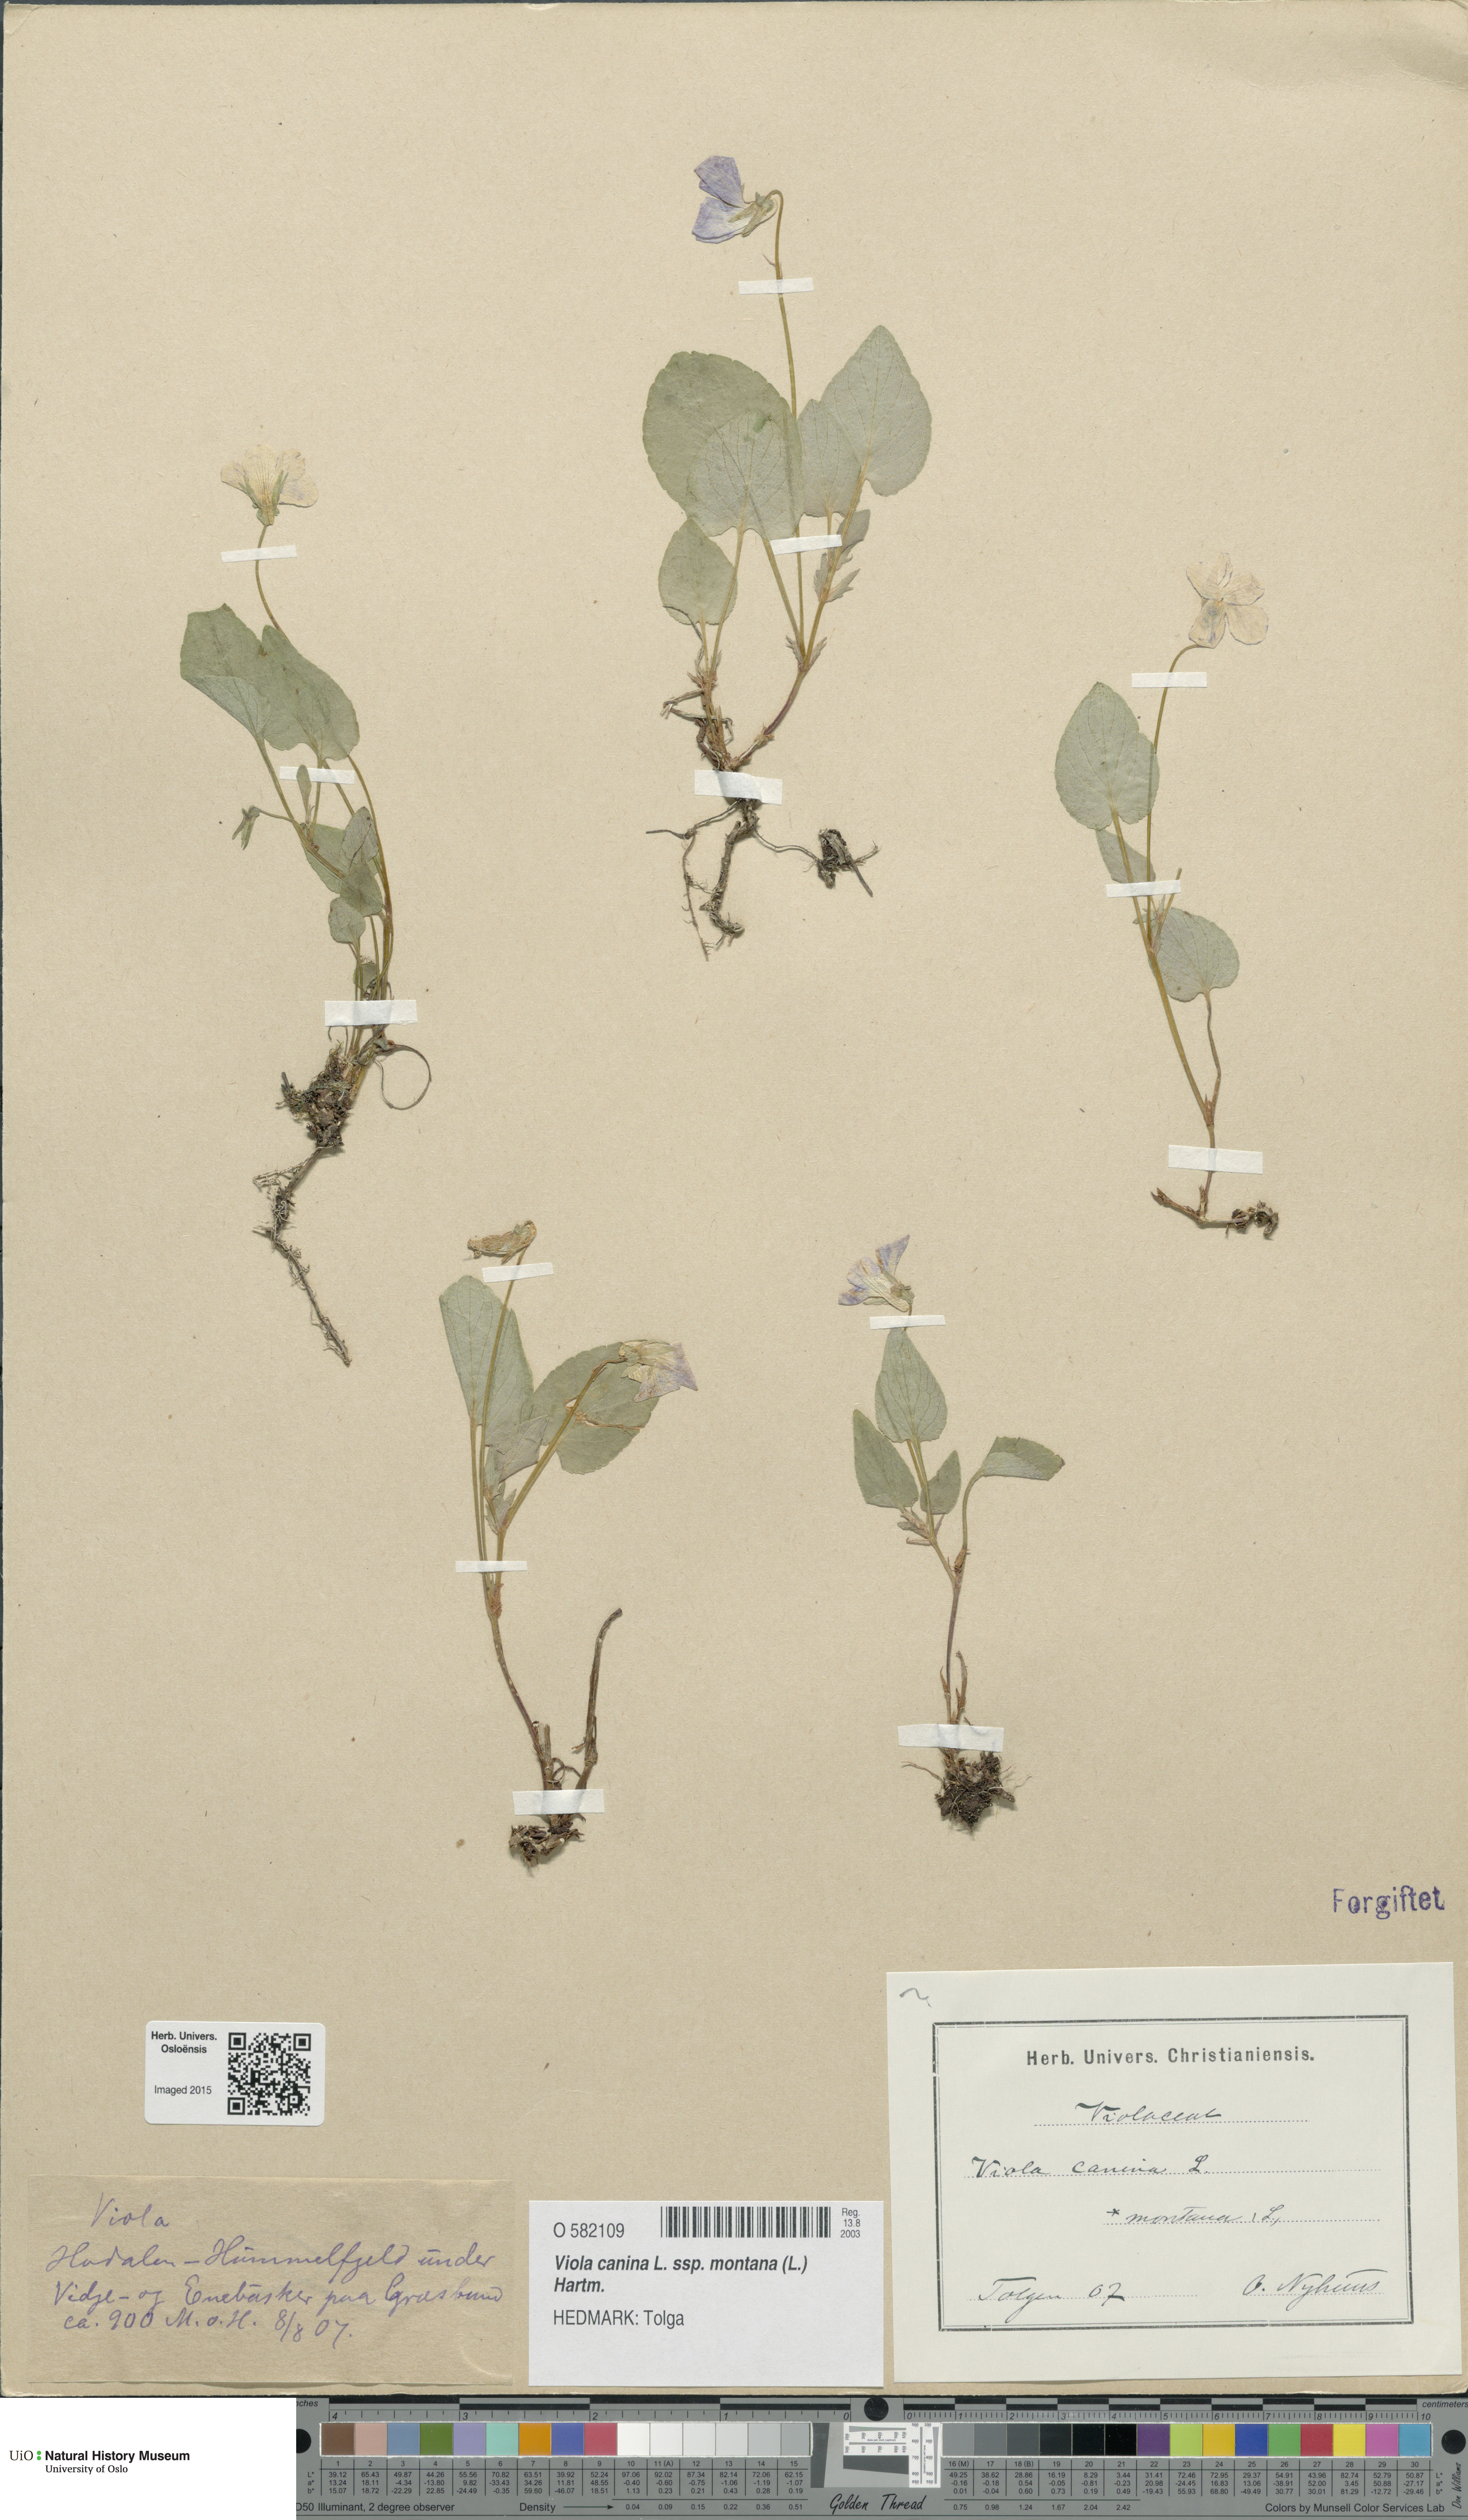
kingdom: Plantae
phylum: Tracheophyta
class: Magnoliopsida
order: Malpighiales
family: Violaceae
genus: Viola
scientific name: Viola ruppii
